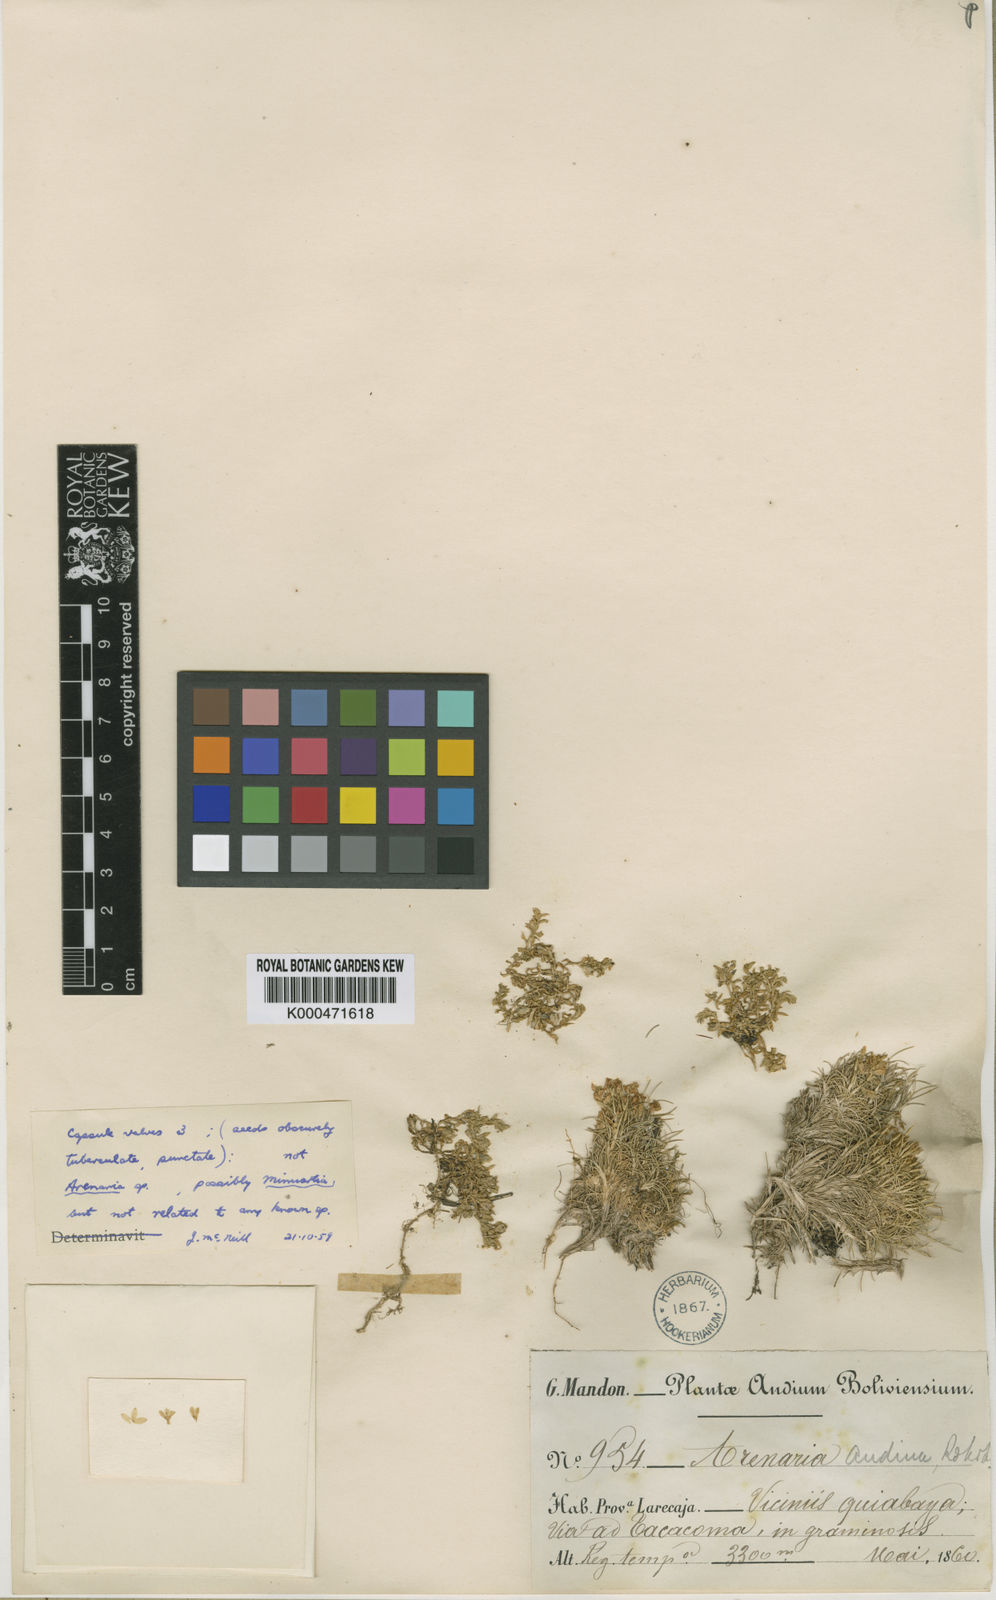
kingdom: Plantae
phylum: Tracheophyta
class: Magnoliopsida
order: Caryophyllales
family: Caryophyllaceae
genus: Arenaria
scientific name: Arenaria andina
